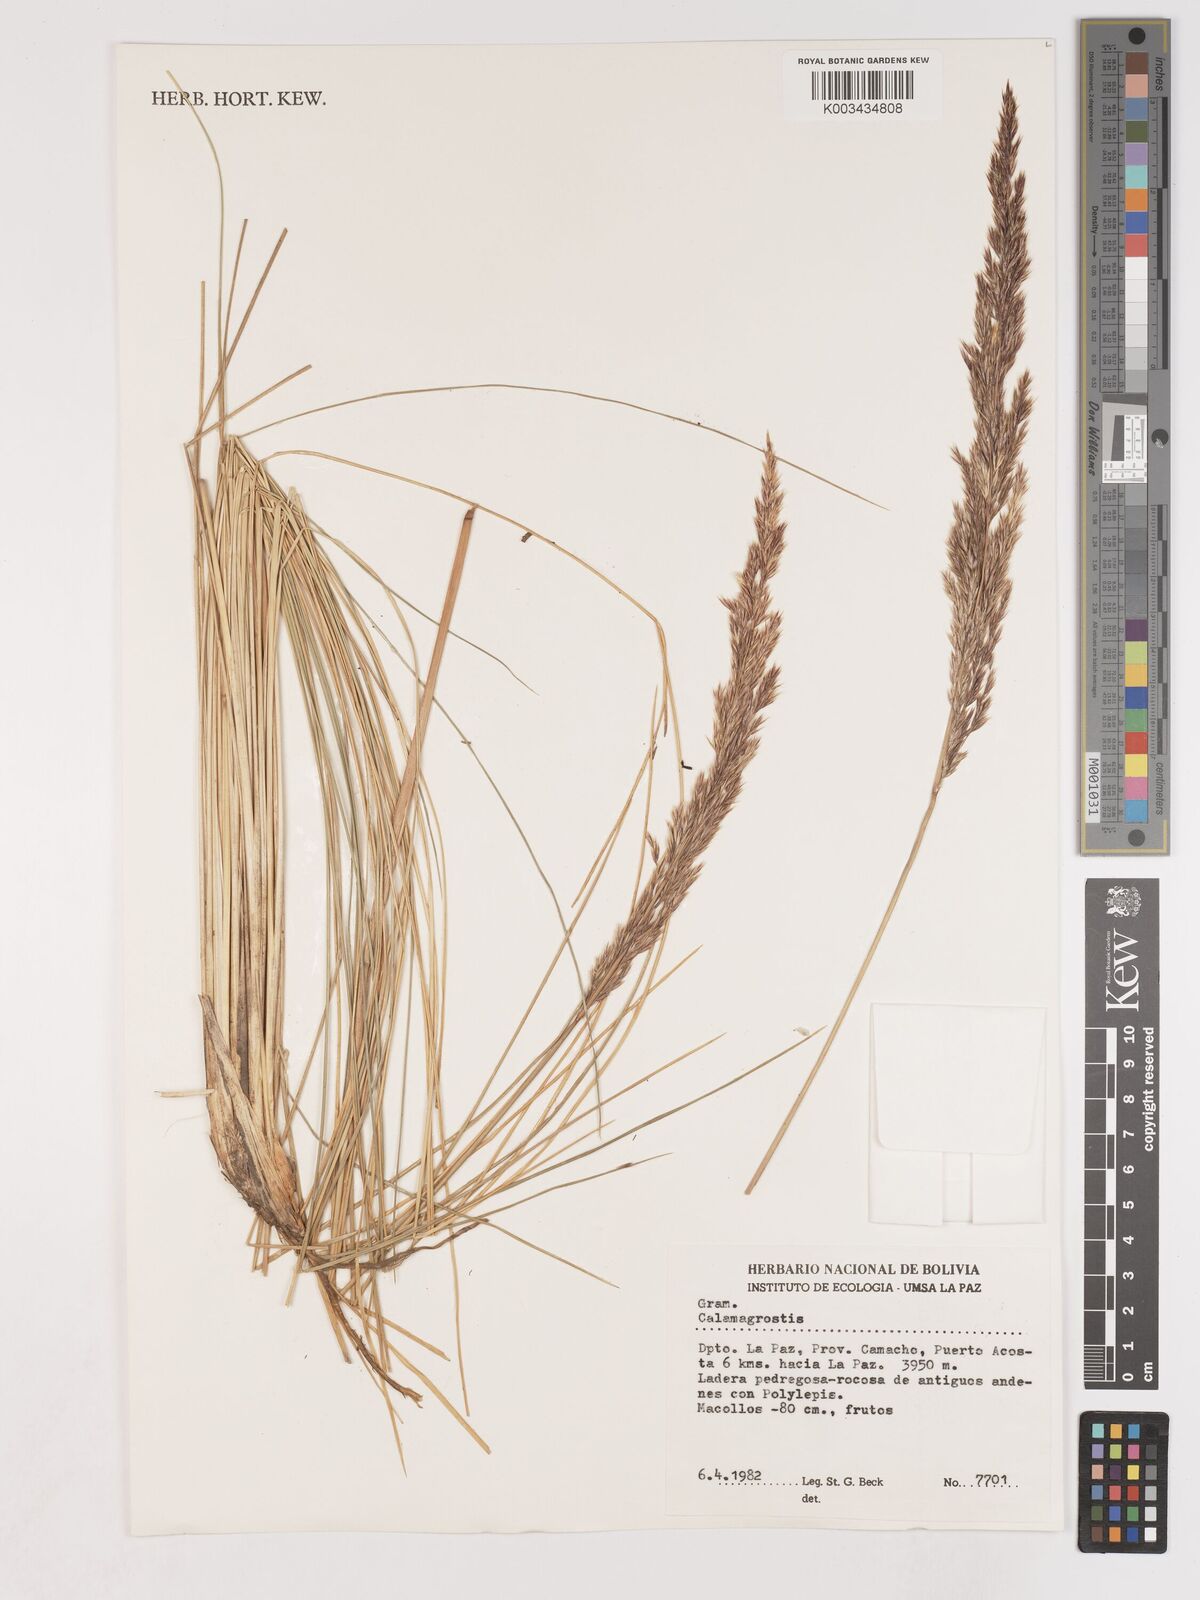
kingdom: Plantae
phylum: Tracheophyta
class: Liliopsida
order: Poales
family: Poaceae
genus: Cinnagrostis
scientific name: Cinnagrostis orbignyana
